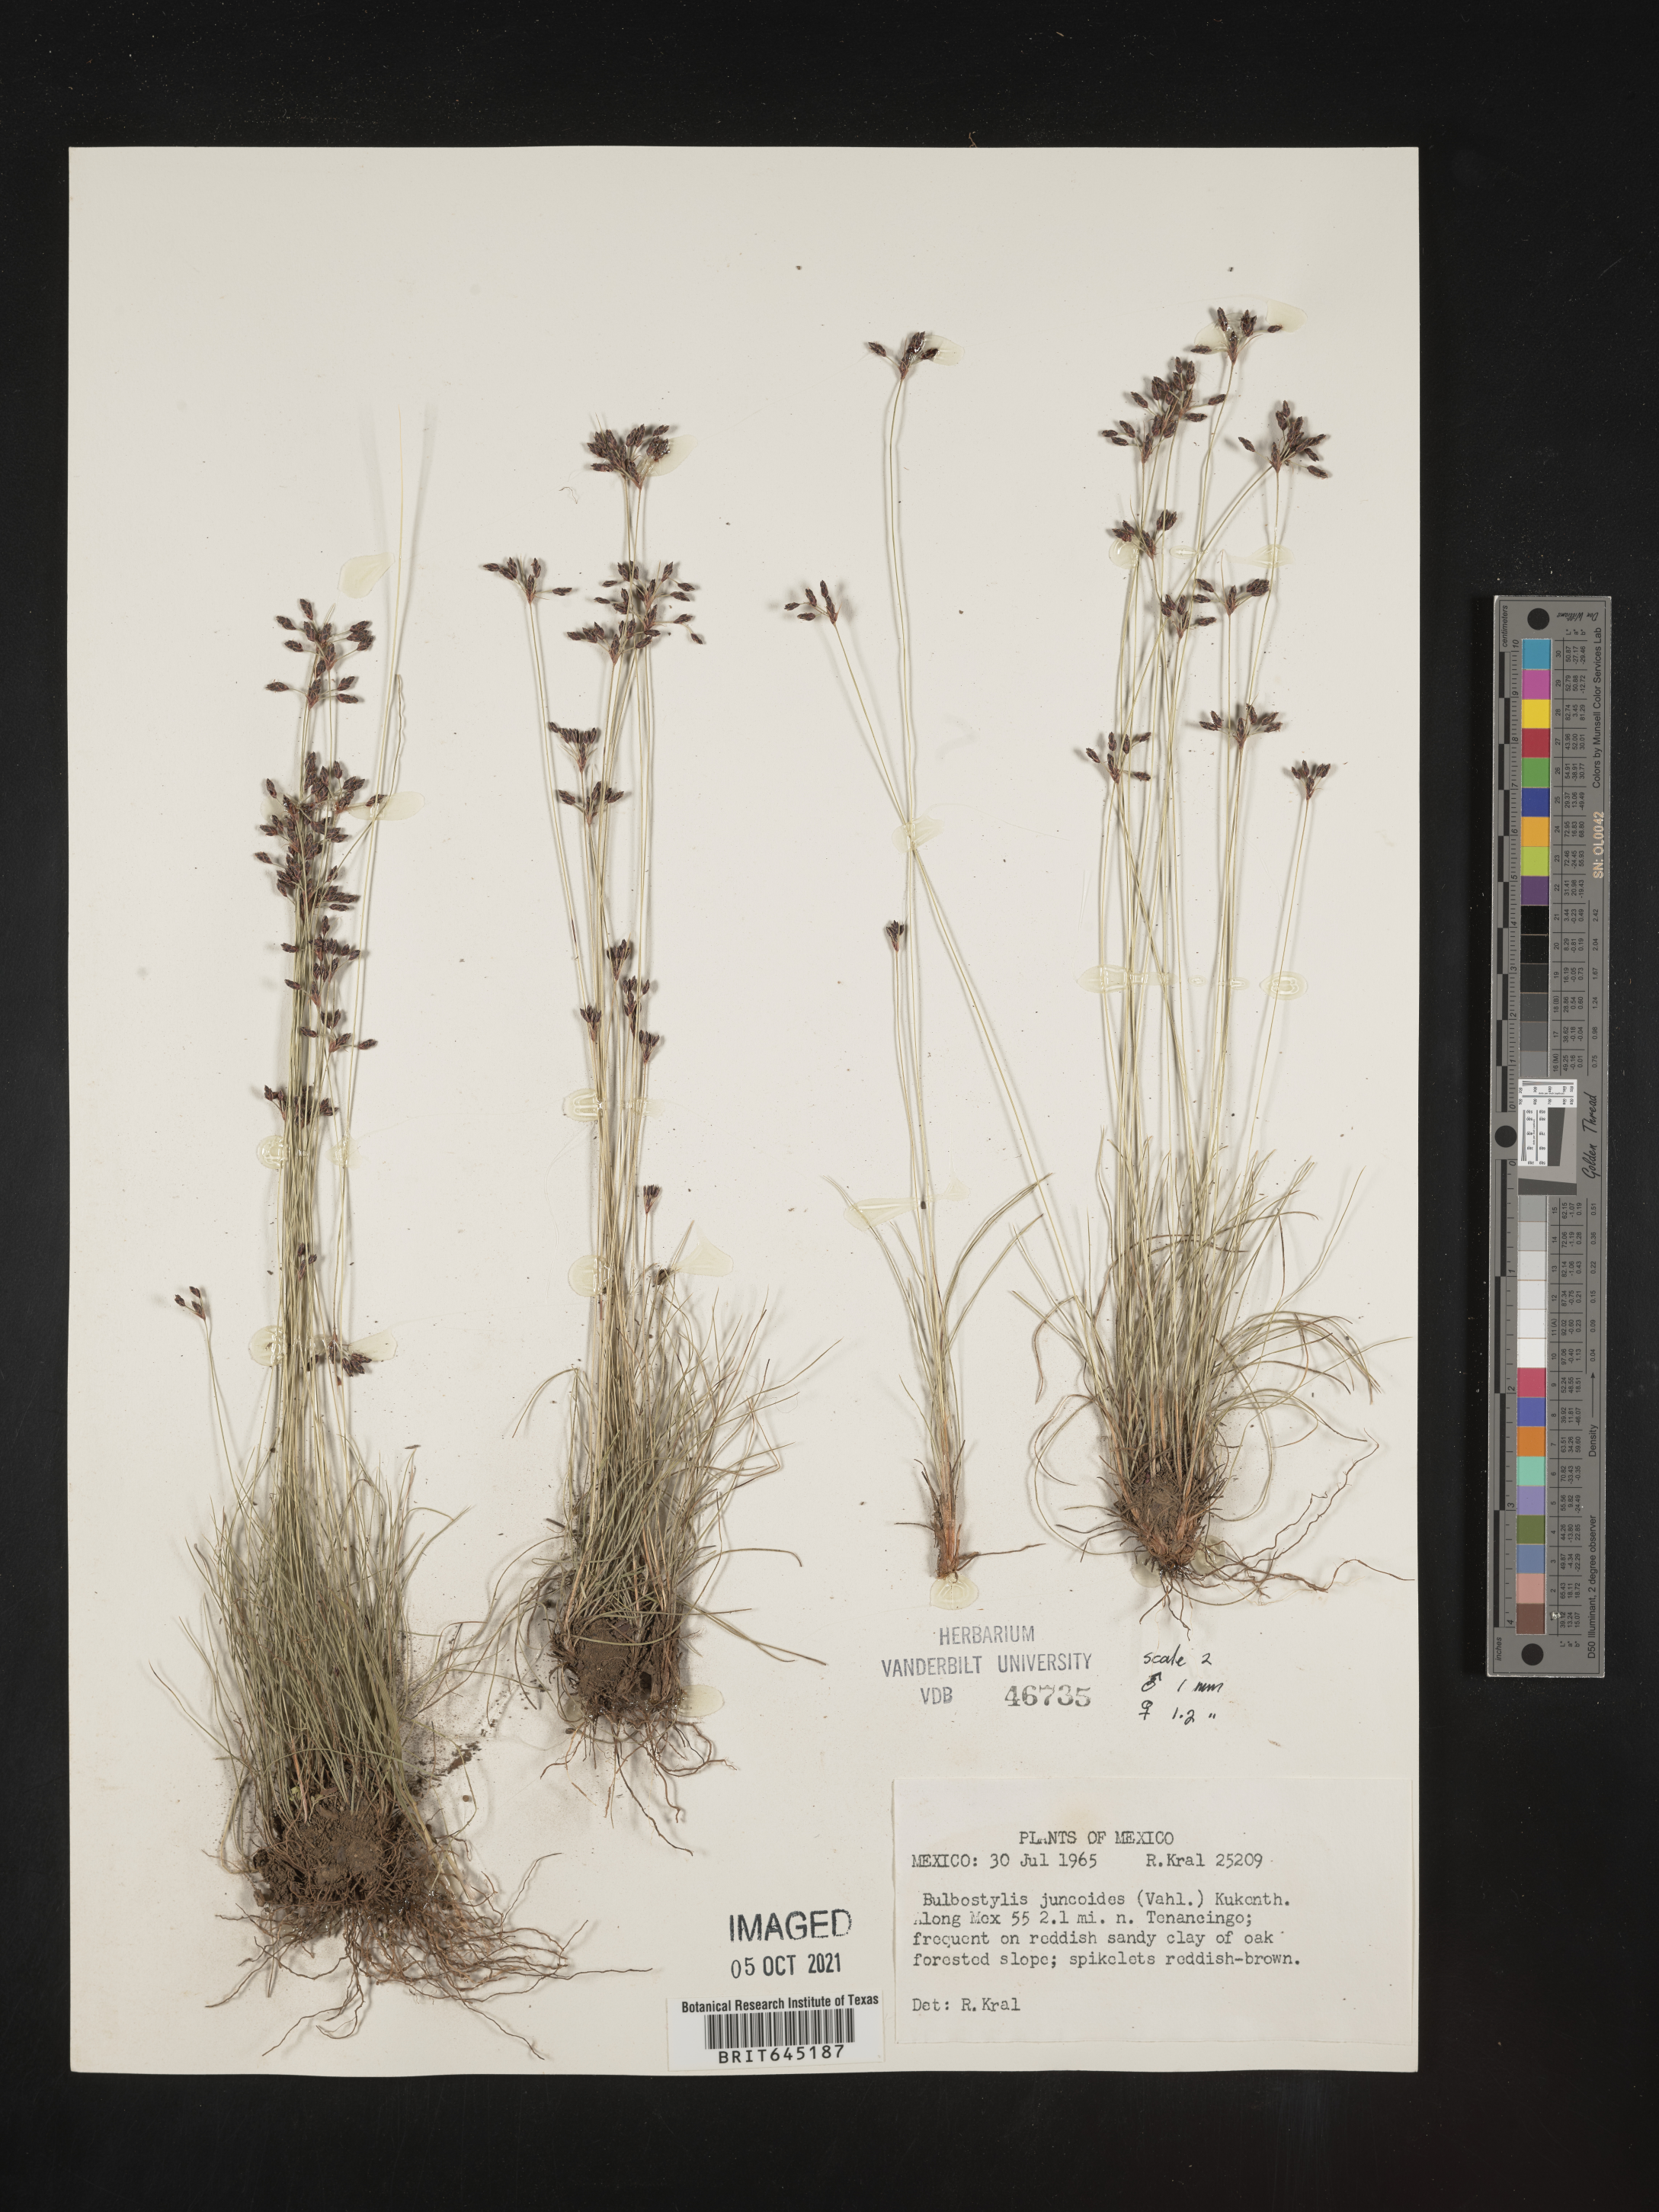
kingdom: Plantae
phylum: Tracheophyta
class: Liliopsida
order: Poales
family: Cyperaceae
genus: Bulbostylis
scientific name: Bulbostylis juncoides
